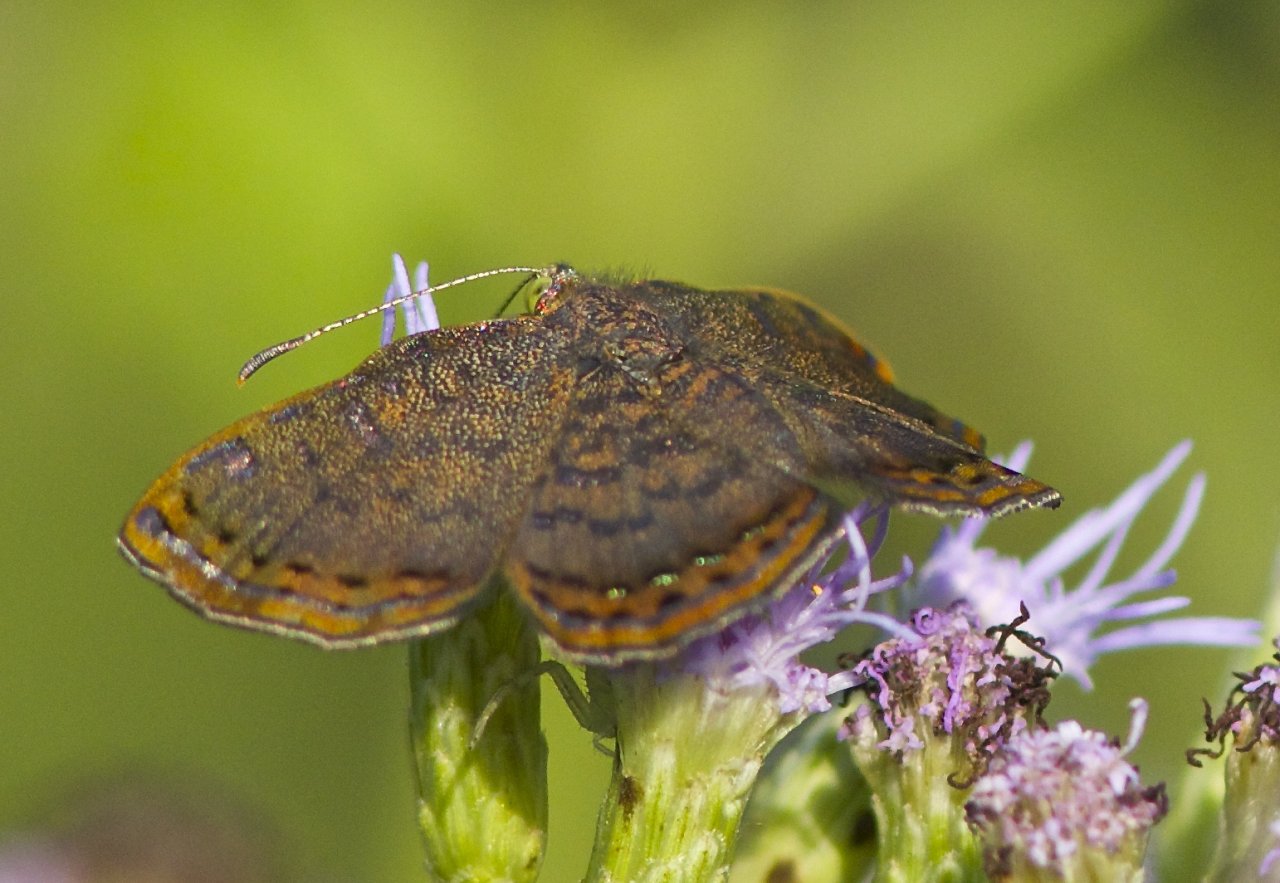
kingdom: Animalia
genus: Caria
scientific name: Caria ino
